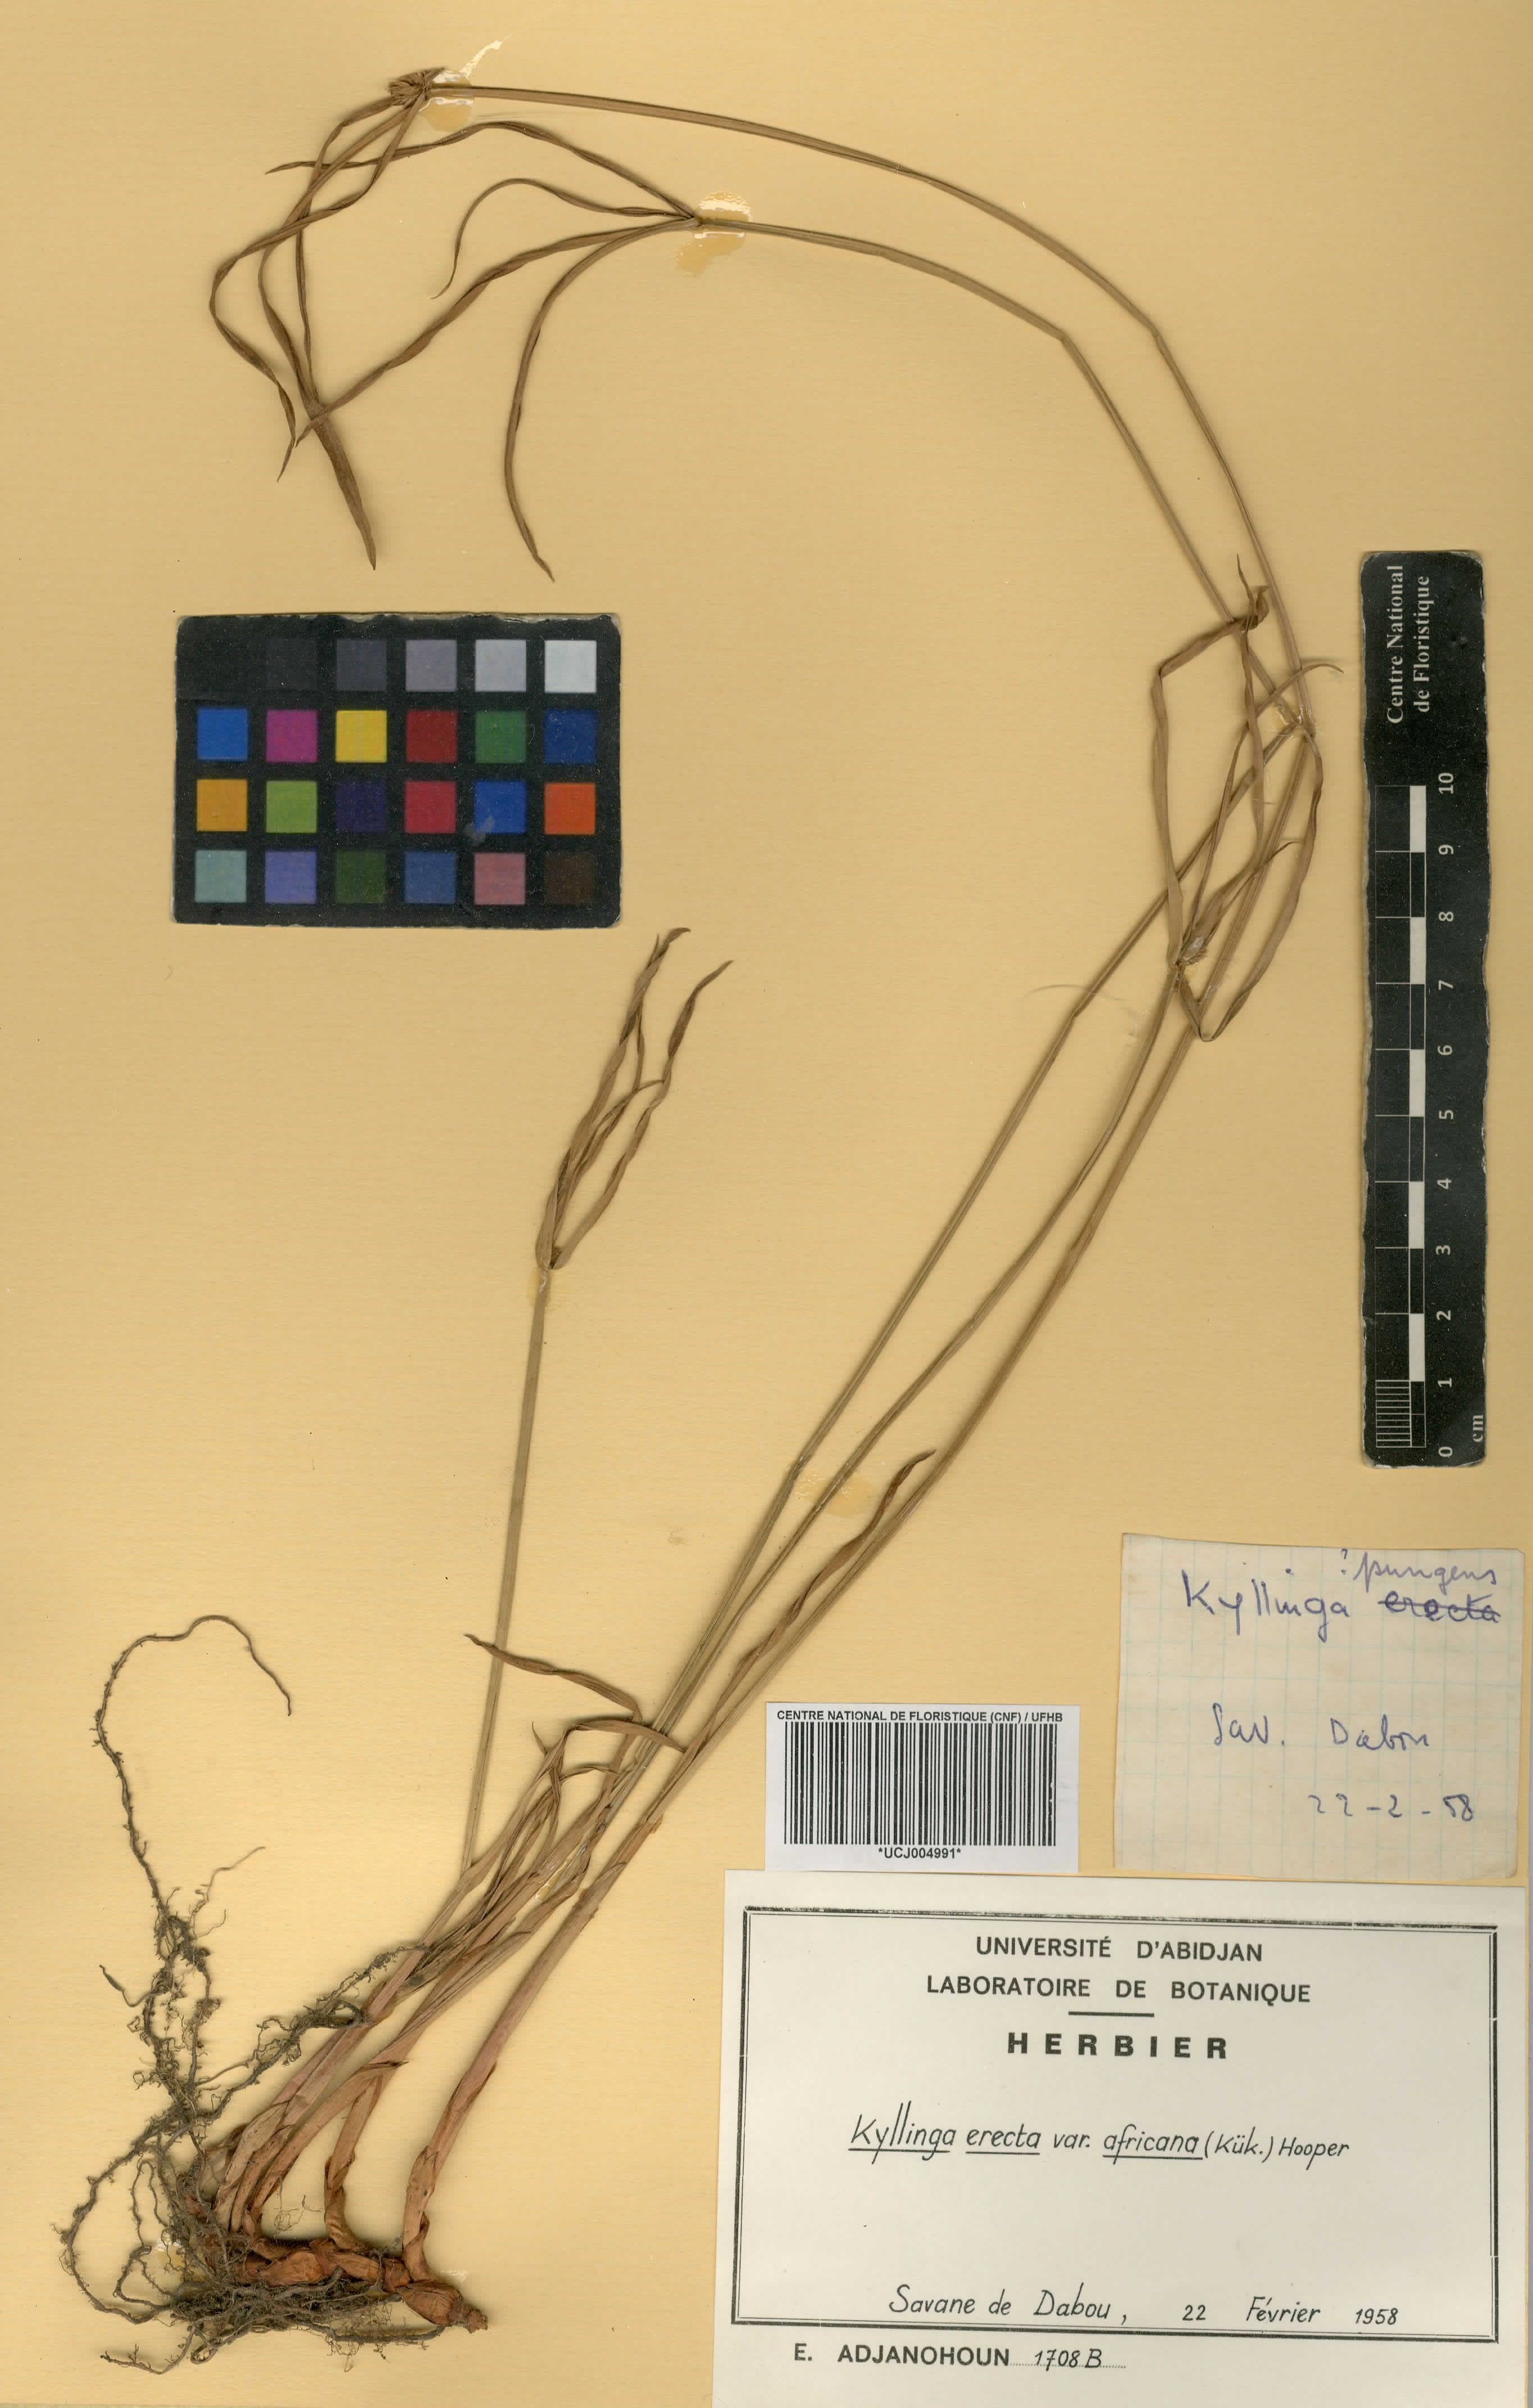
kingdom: Plantae
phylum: Tracheophyta
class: Liliopsida
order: Poales
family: Cyperaceae
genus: Cyperus
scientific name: Cyperus obtusatus
